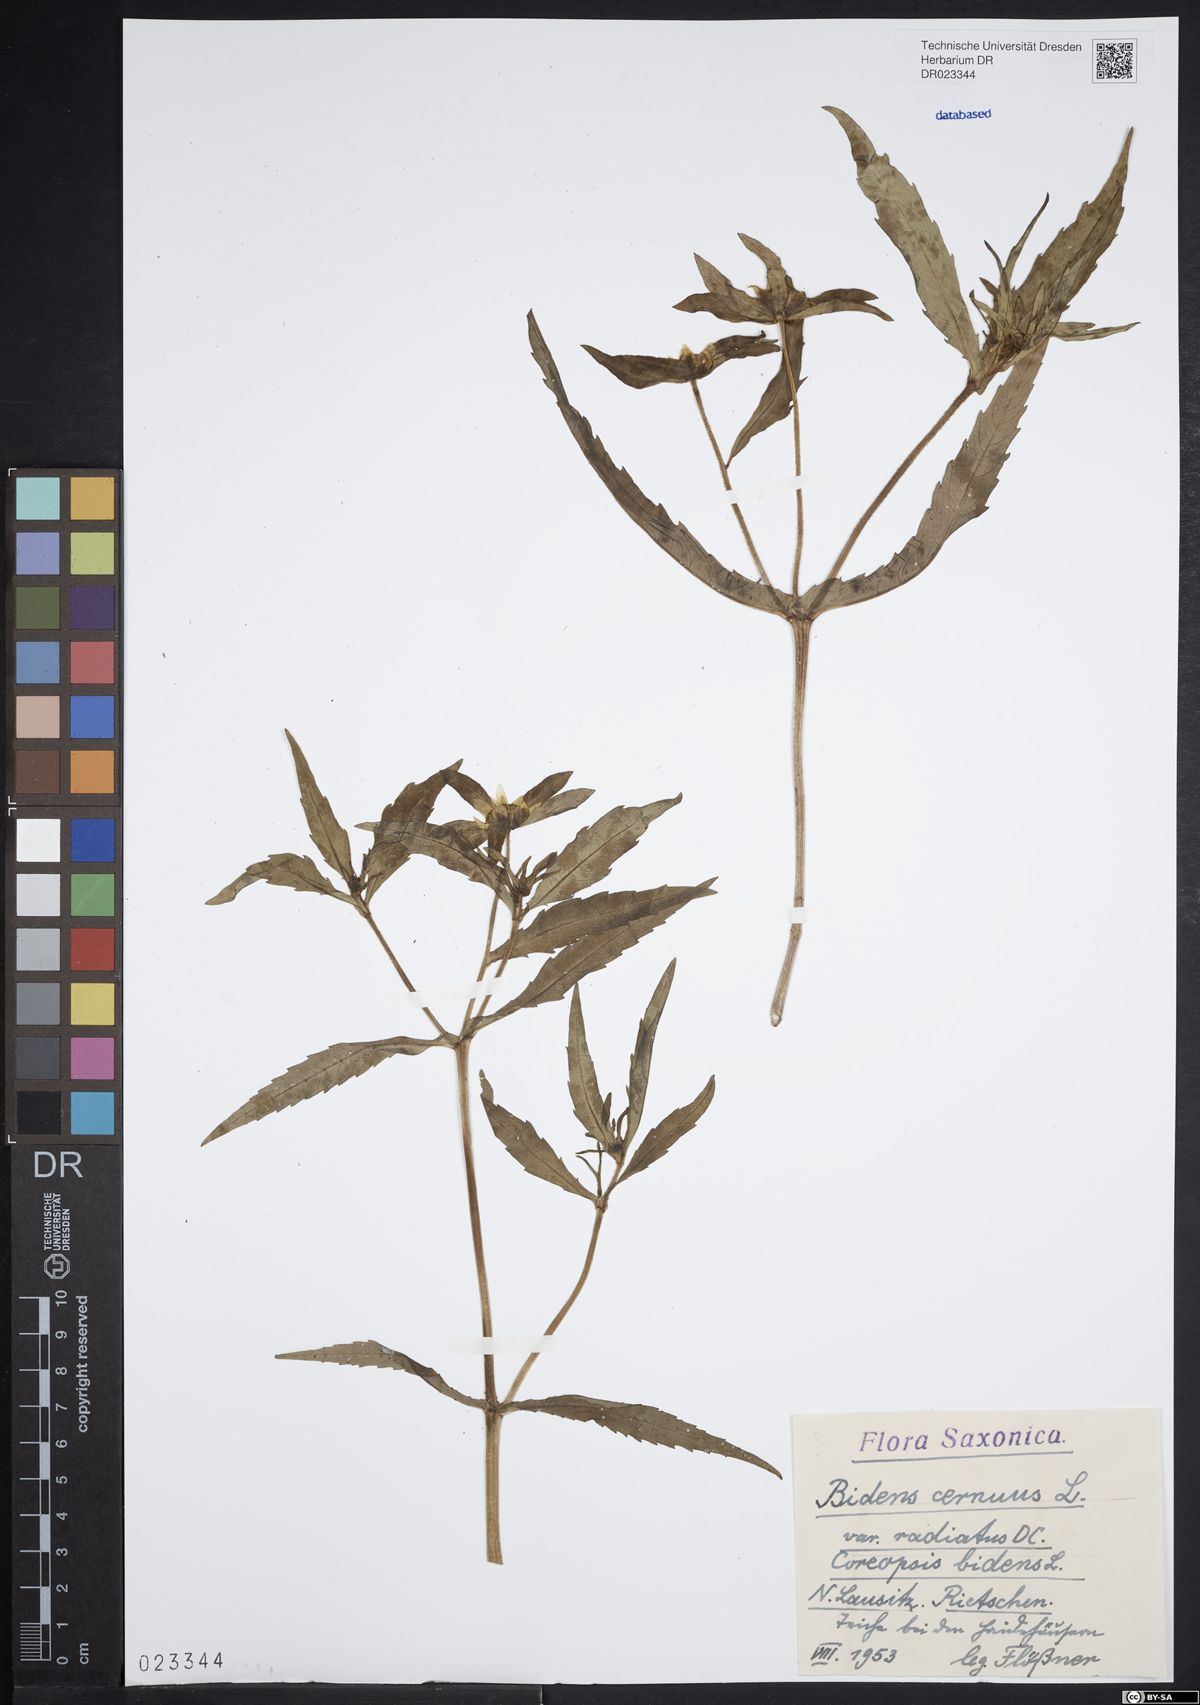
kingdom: Plantae
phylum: Tracheophyta
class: Magnoliopsida
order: Asterales
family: Asteraceae
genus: Bidens
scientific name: Bidens cernua
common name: Nodding bur-marigold
